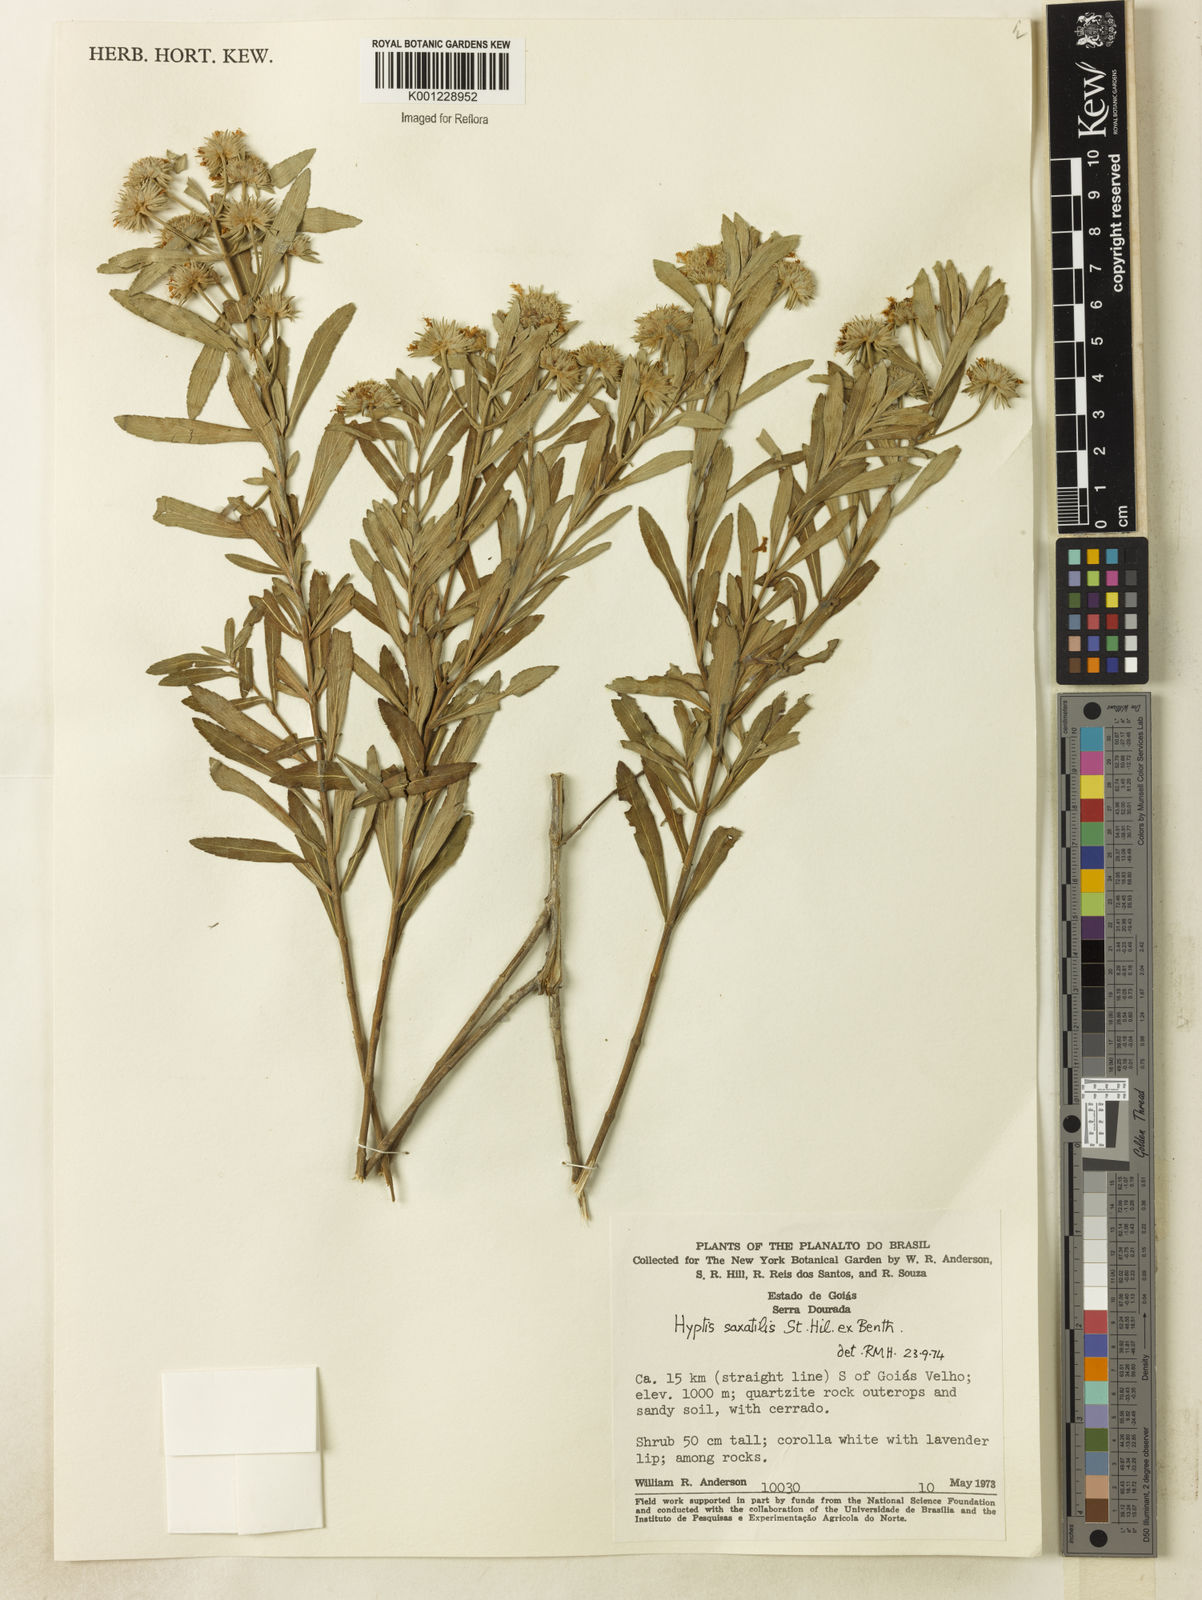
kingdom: Plantae
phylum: Tracheophyta
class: Magnoliopsida
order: Lamiales
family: Lamiaceae
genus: Hyptis
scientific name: Hyptis angustifolia
